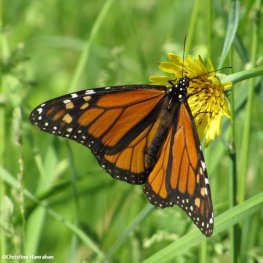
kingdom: Animalia
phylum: Arthropoda
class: Insecta
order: Lepidoptera
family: Nymphalidae
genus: Danaus
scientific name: Danaus plexippus
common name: Monarch
